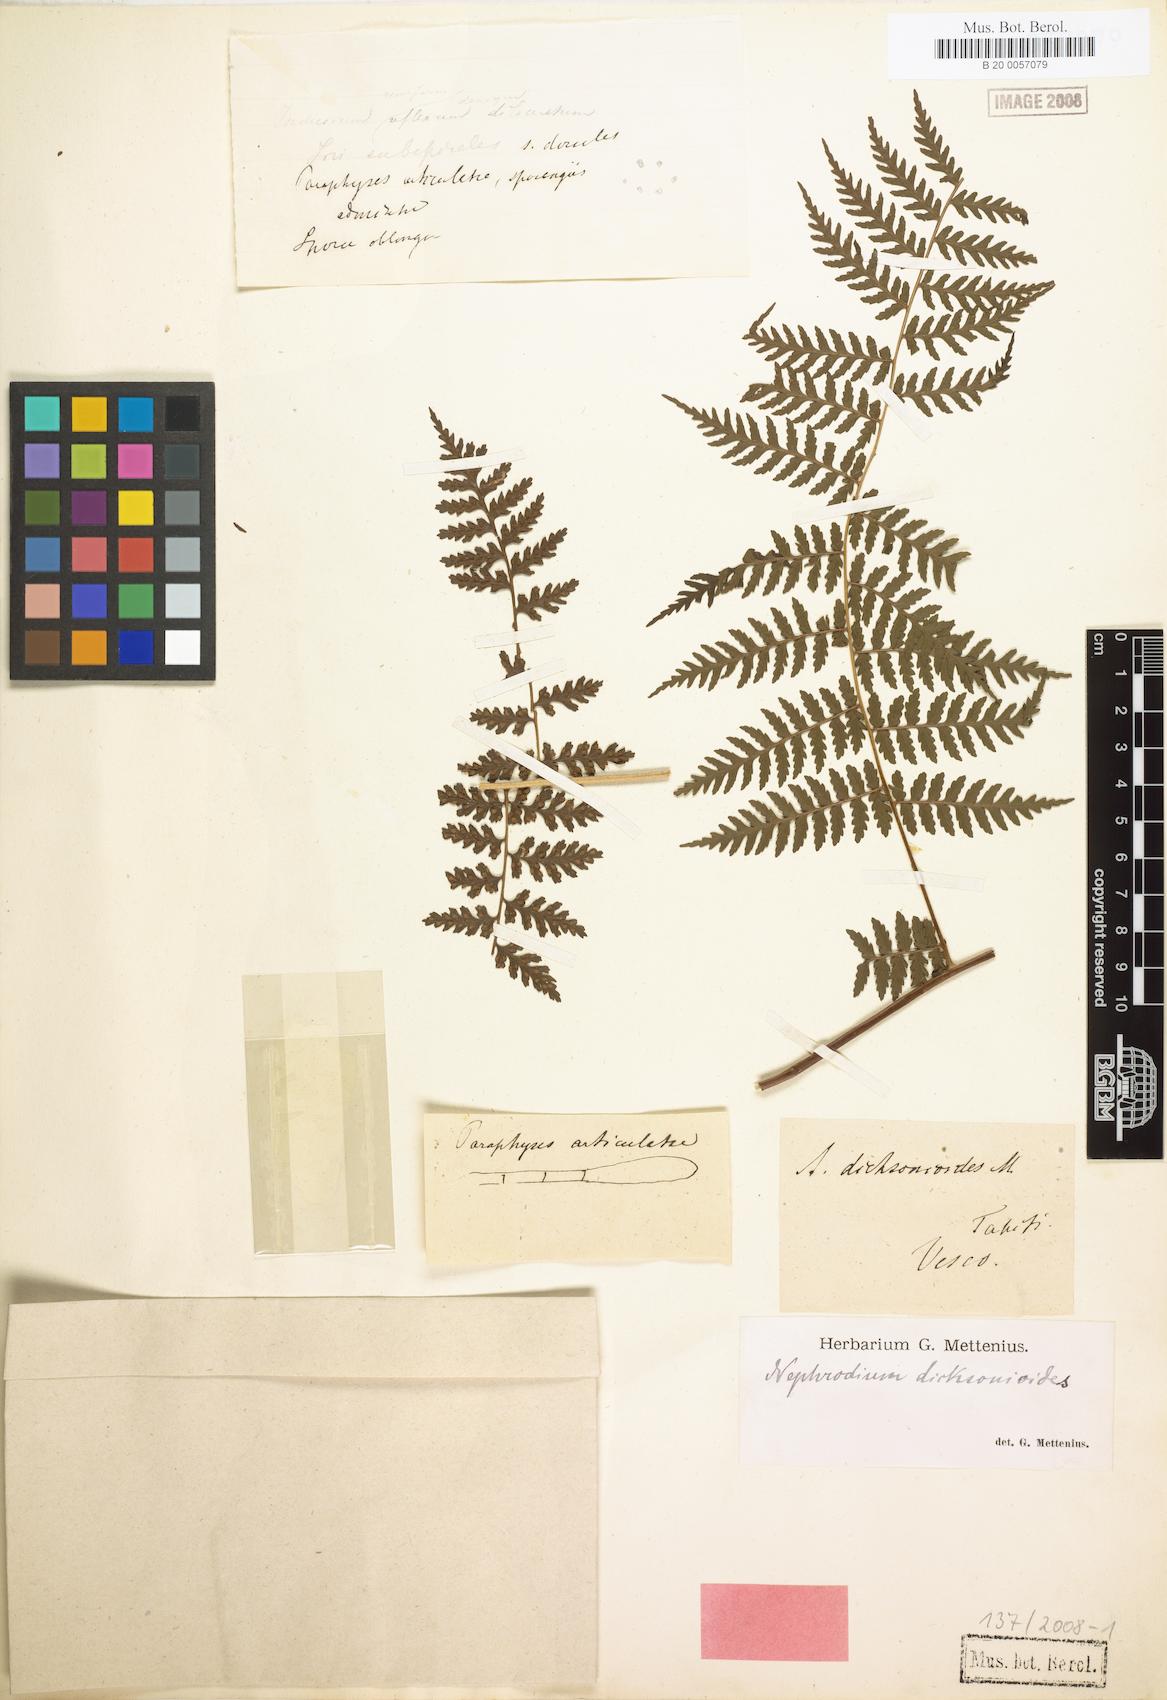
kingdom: Plantae
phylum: Tracheophyta
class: Polypodiopsida
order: Polypodiales
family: Dryopteridaceae
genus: Dryopteris
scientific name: Dryopteris dicksonioides
